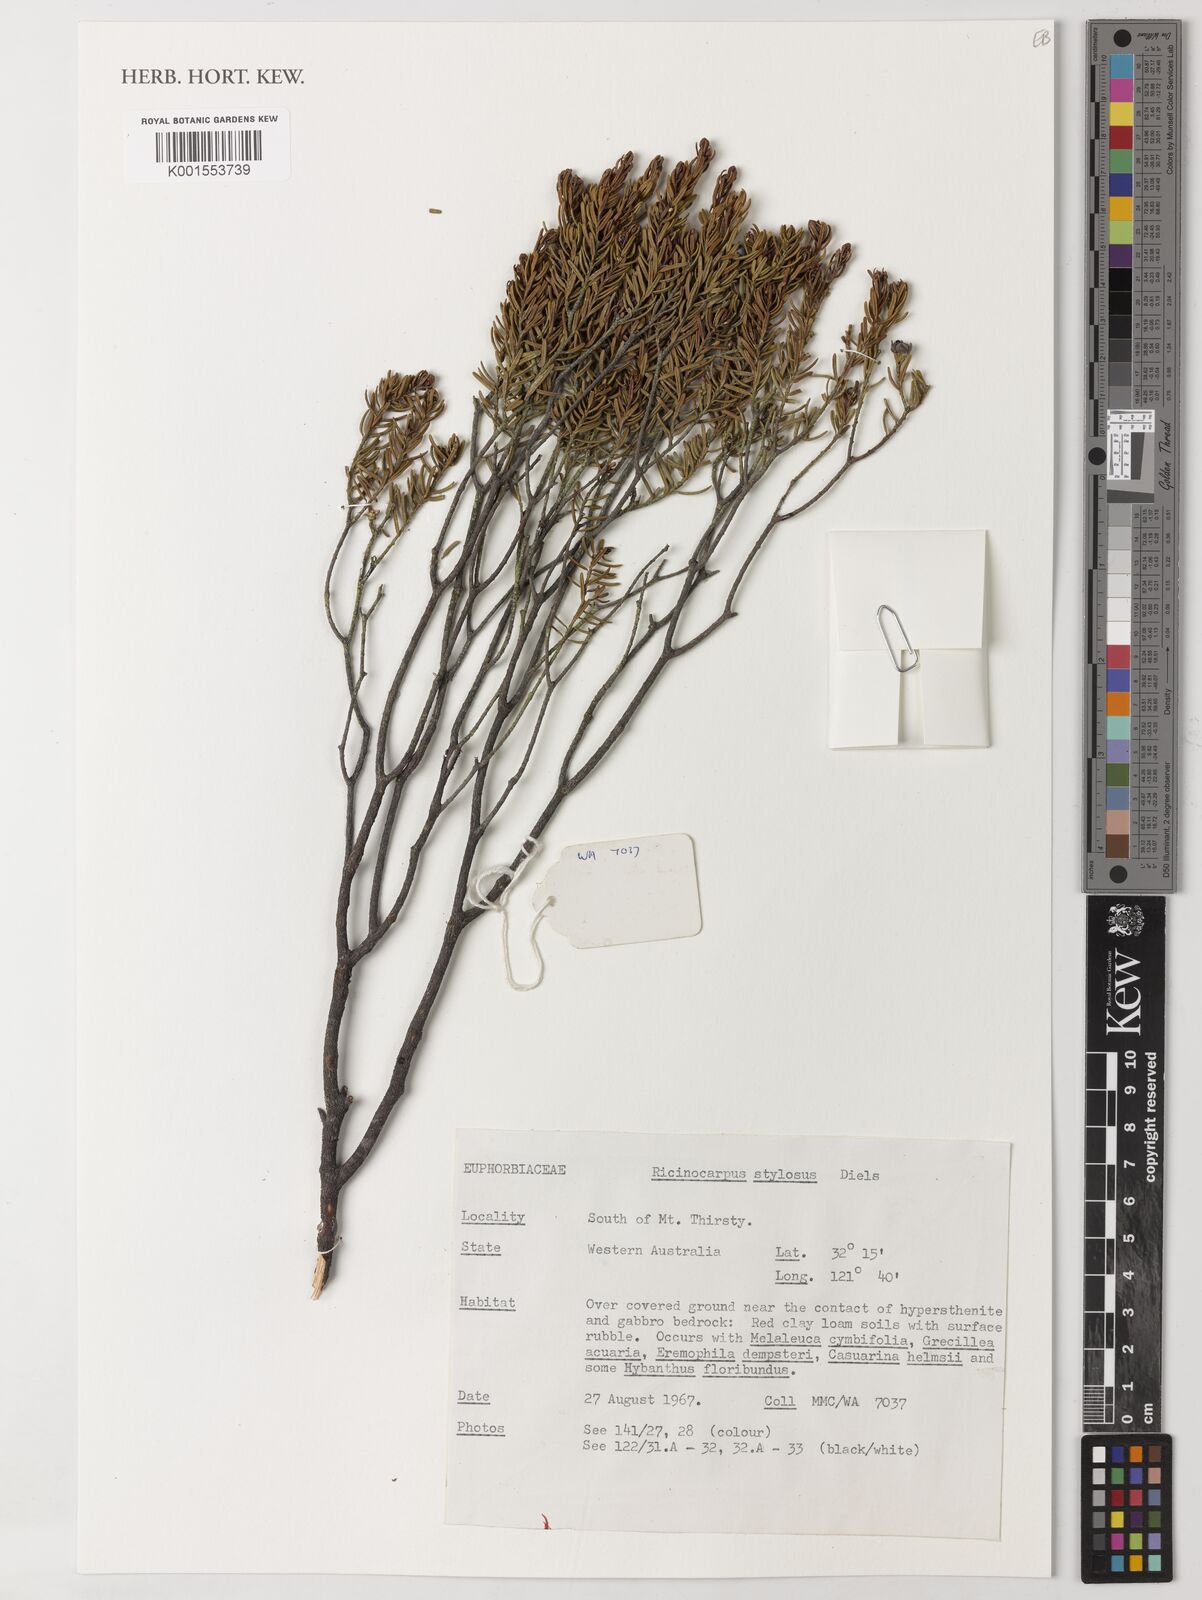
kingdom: Plantae
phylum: Tracheophyta
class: Magnoliopsida
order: Malpighiales
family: Euphorbiaceae
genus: Ricinocarpos
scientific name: Ricinocarpos stylosus
